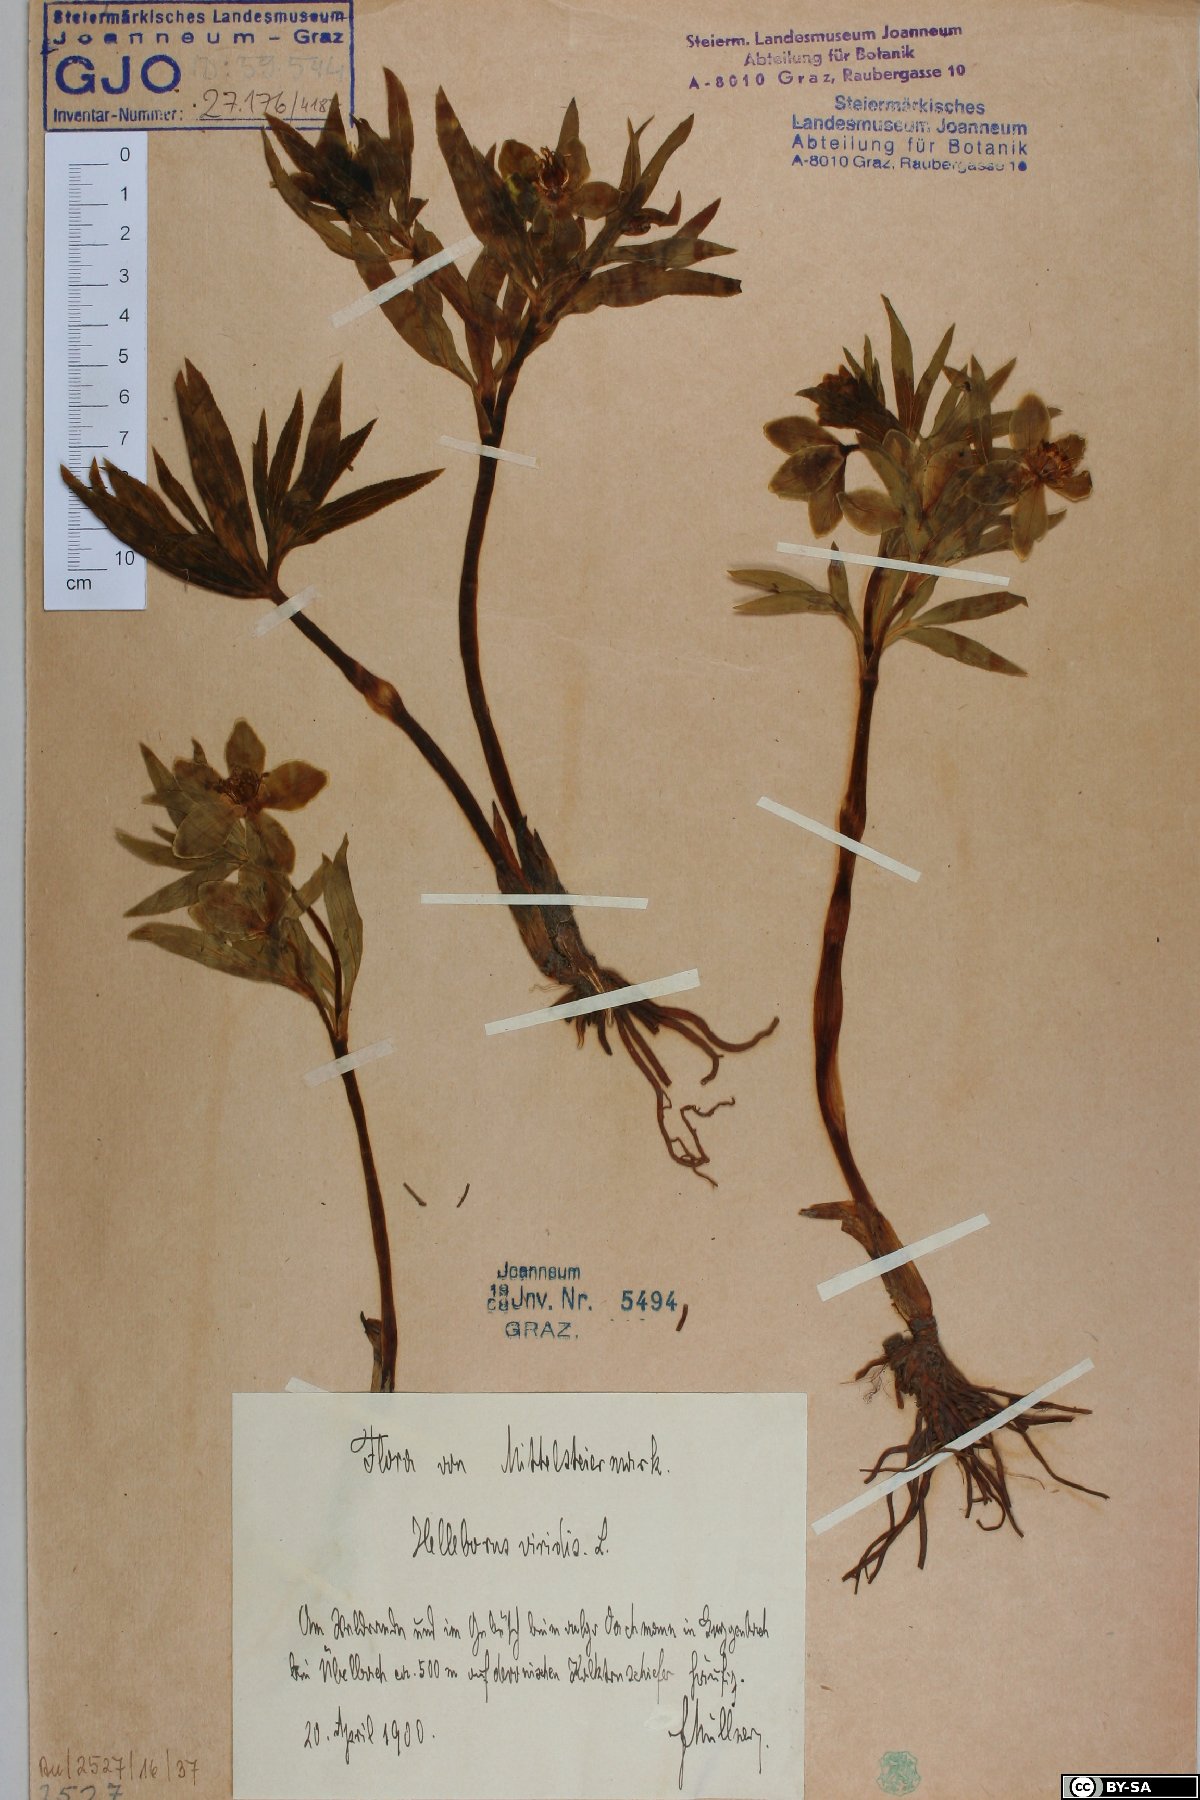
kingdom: Plantae
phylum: Tracheophyta
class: Magnoliopsida
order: Ranunculales
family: Ranunculaceae
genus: Helleborus
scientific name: Helleborus dumetorum
